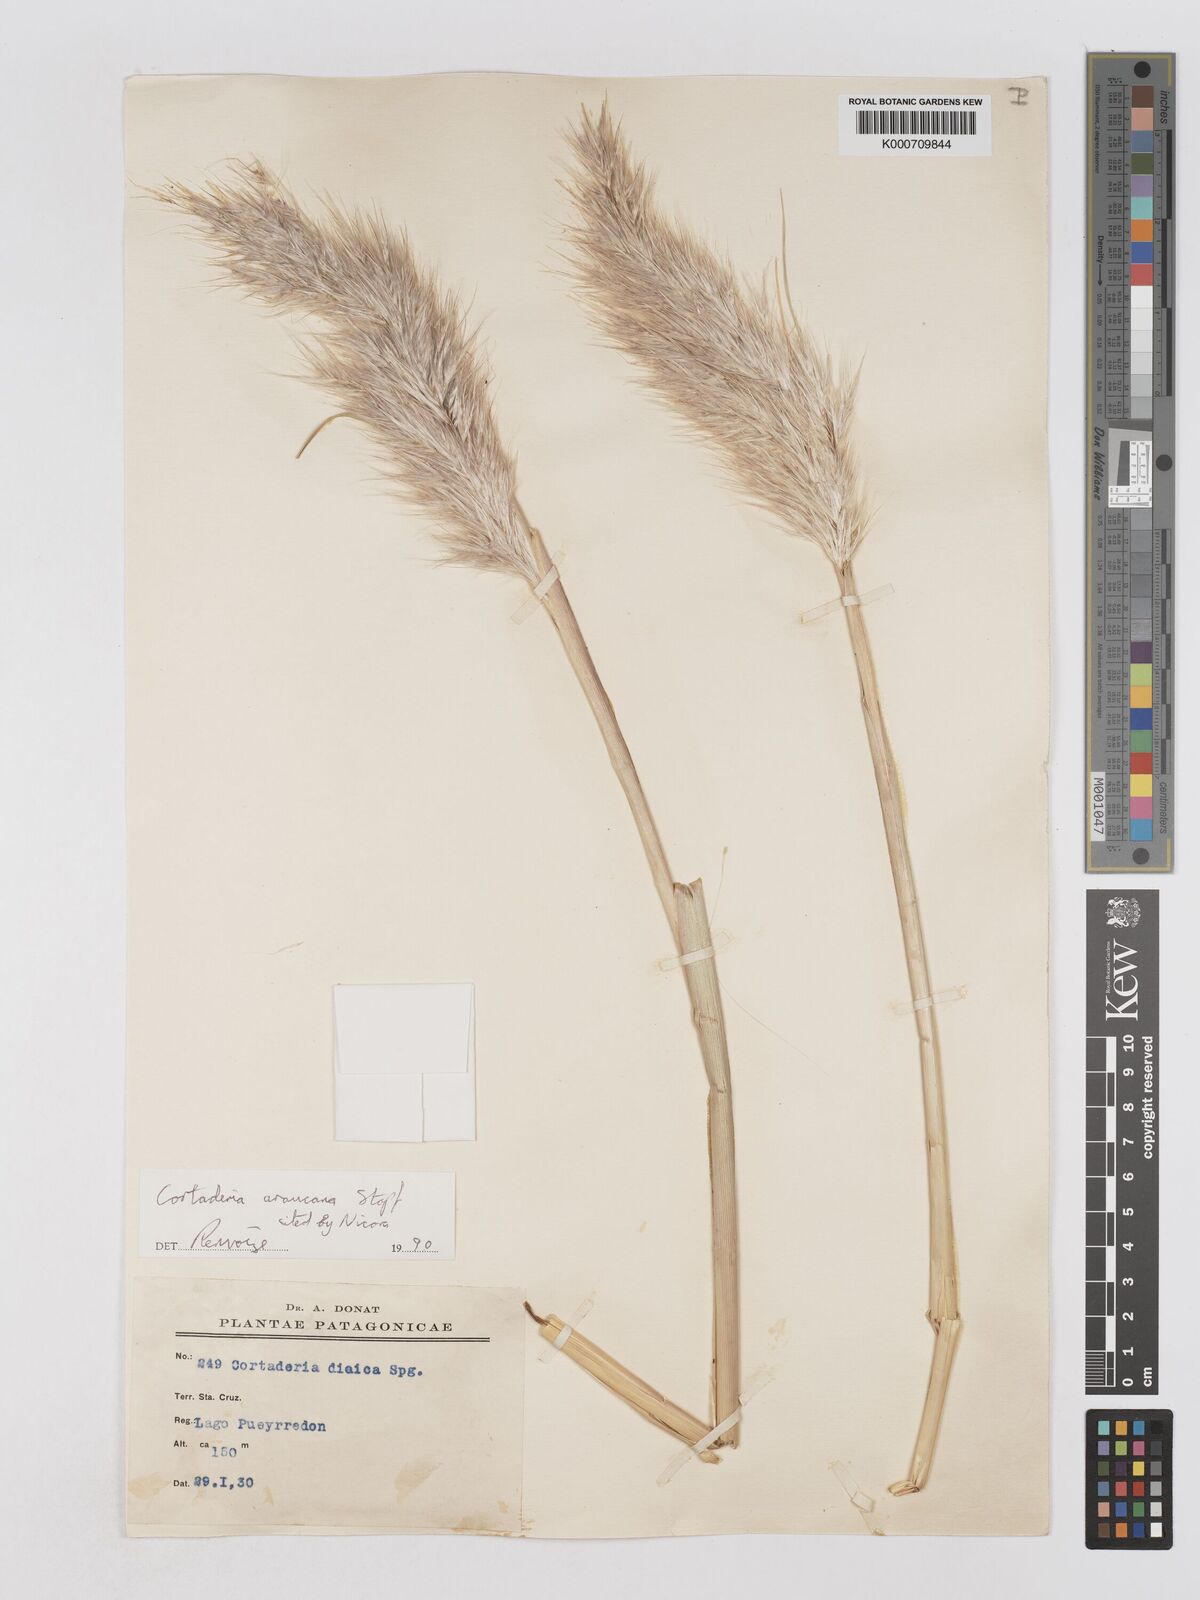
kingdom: Plantae
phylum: Tracheophyta
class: Liliopsida
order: Poales
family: Poaceae
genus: Cortaderia
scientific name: Cortaderia araucana
